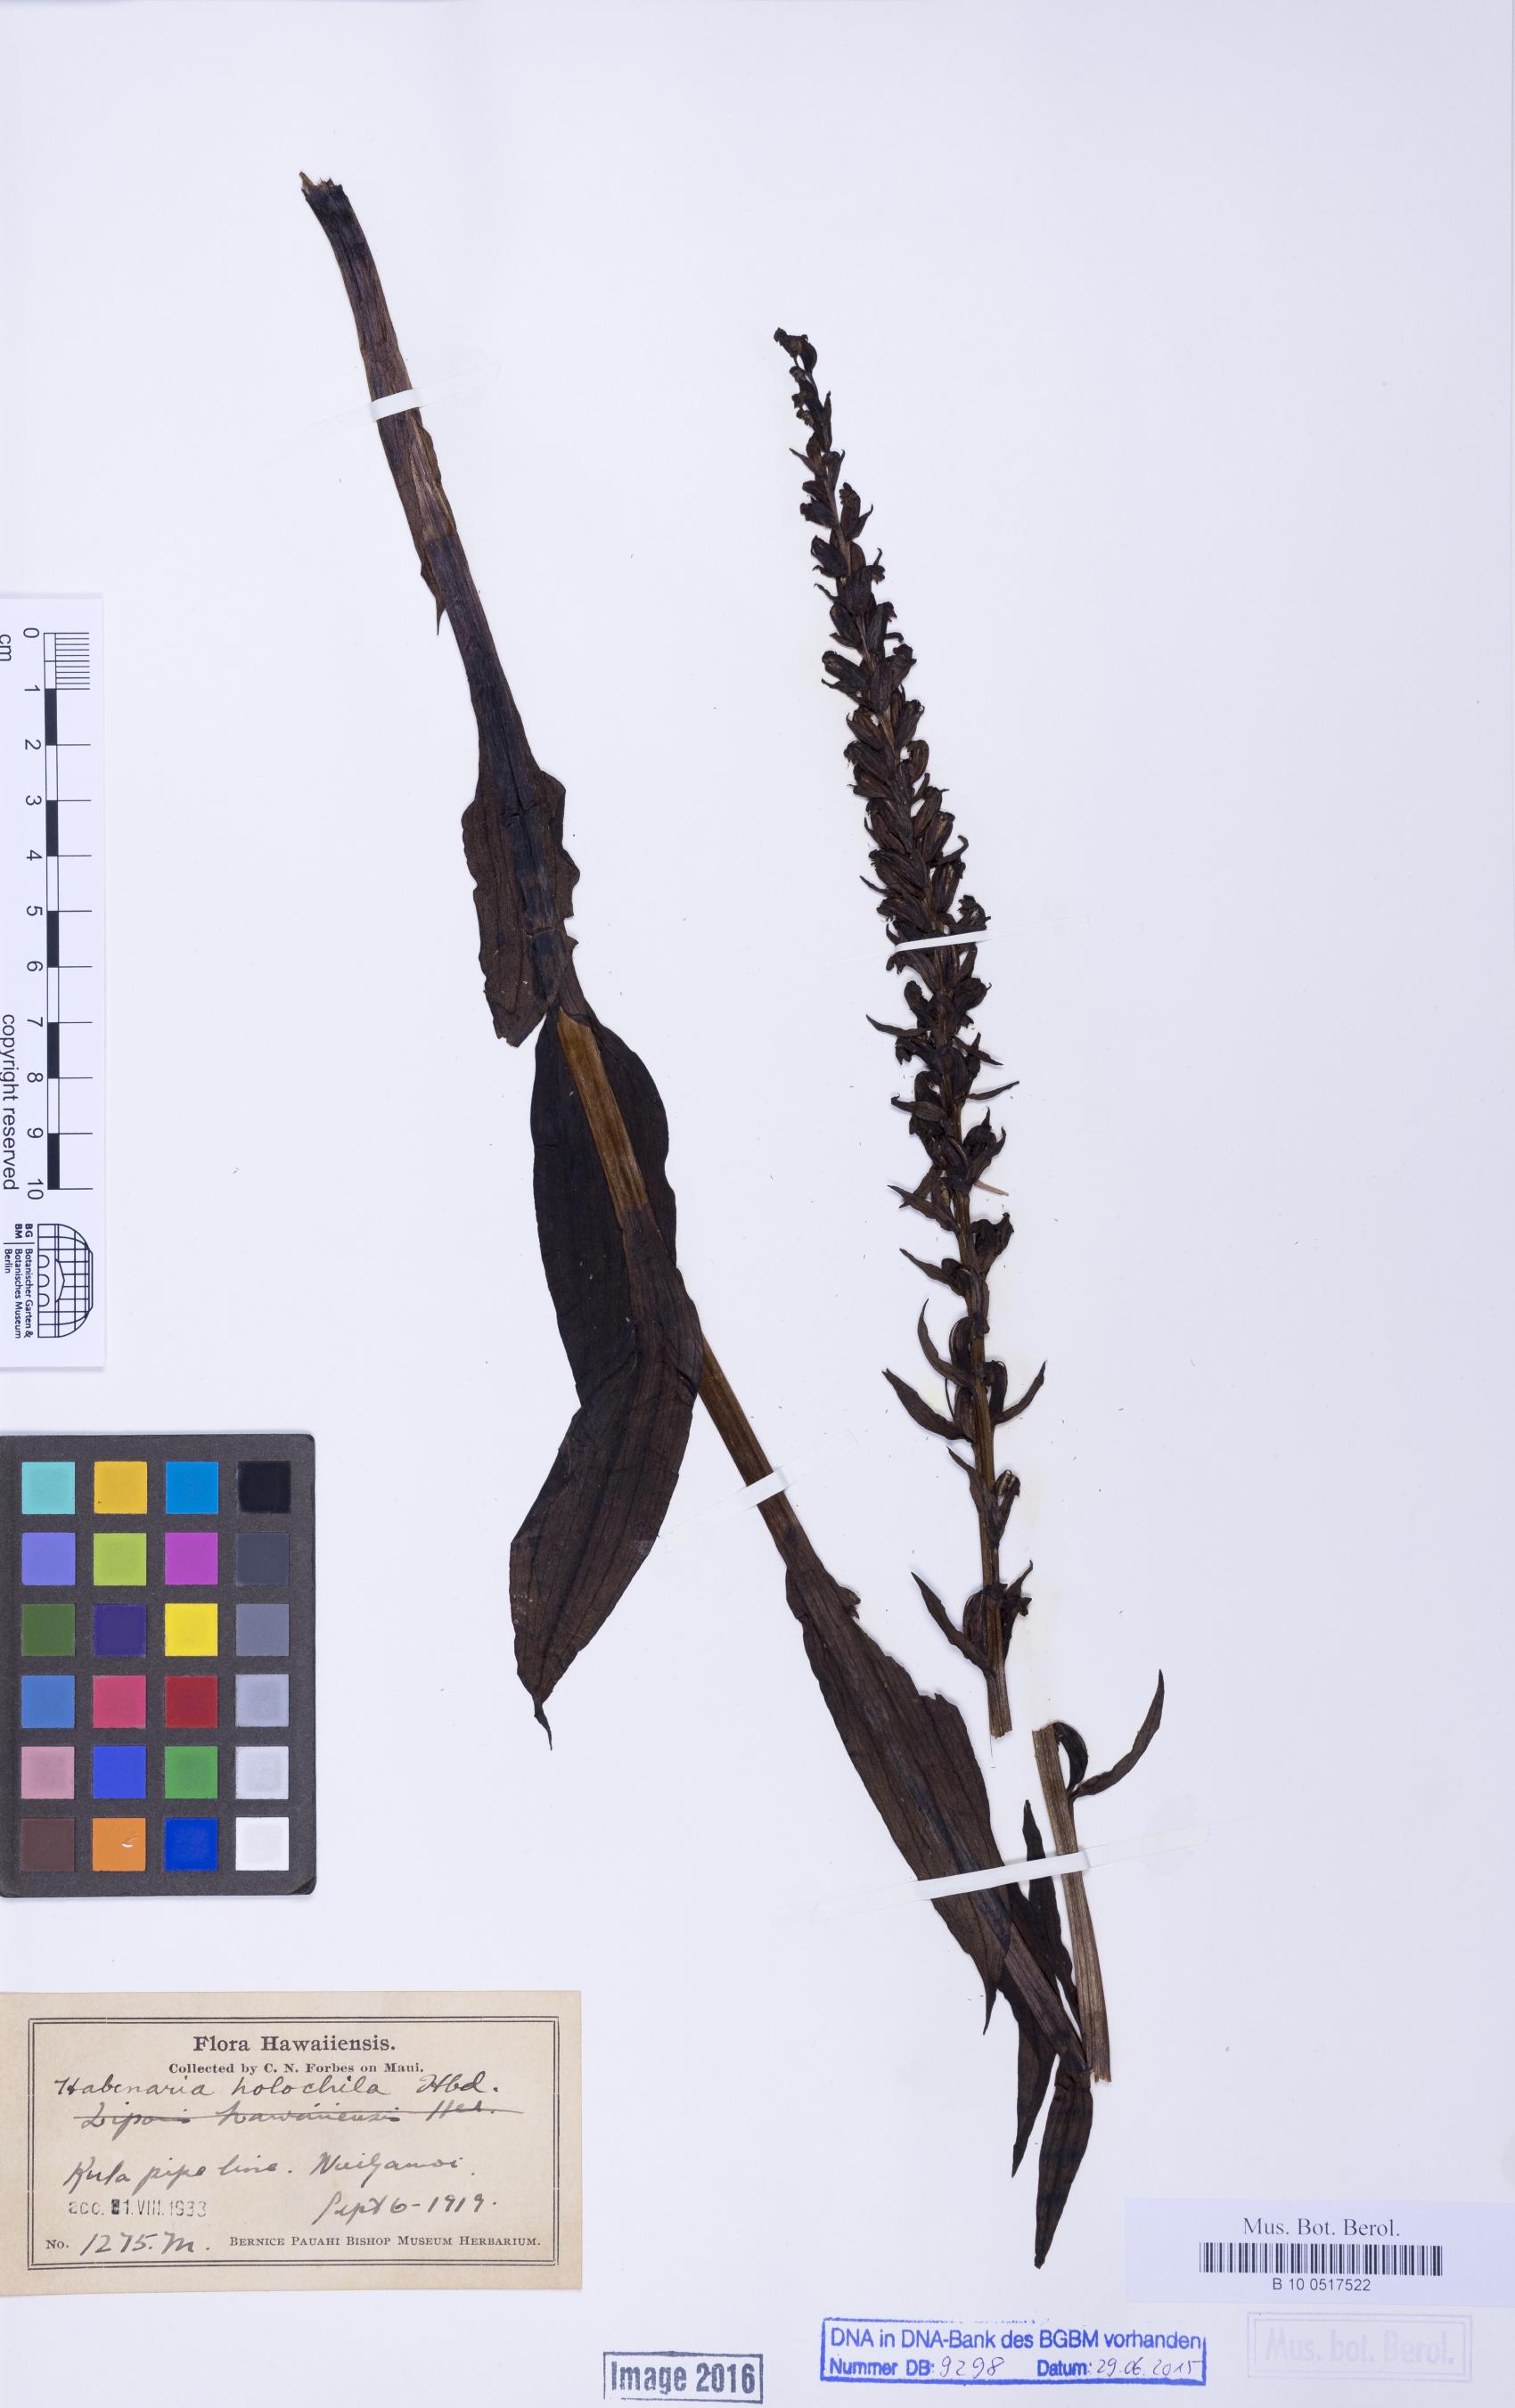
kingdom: Plantae
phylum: Tracheophyta
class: Liliopsida
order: Asparagales
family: Orchidaceae
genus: Peristylus
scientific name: Peristylus holochila
